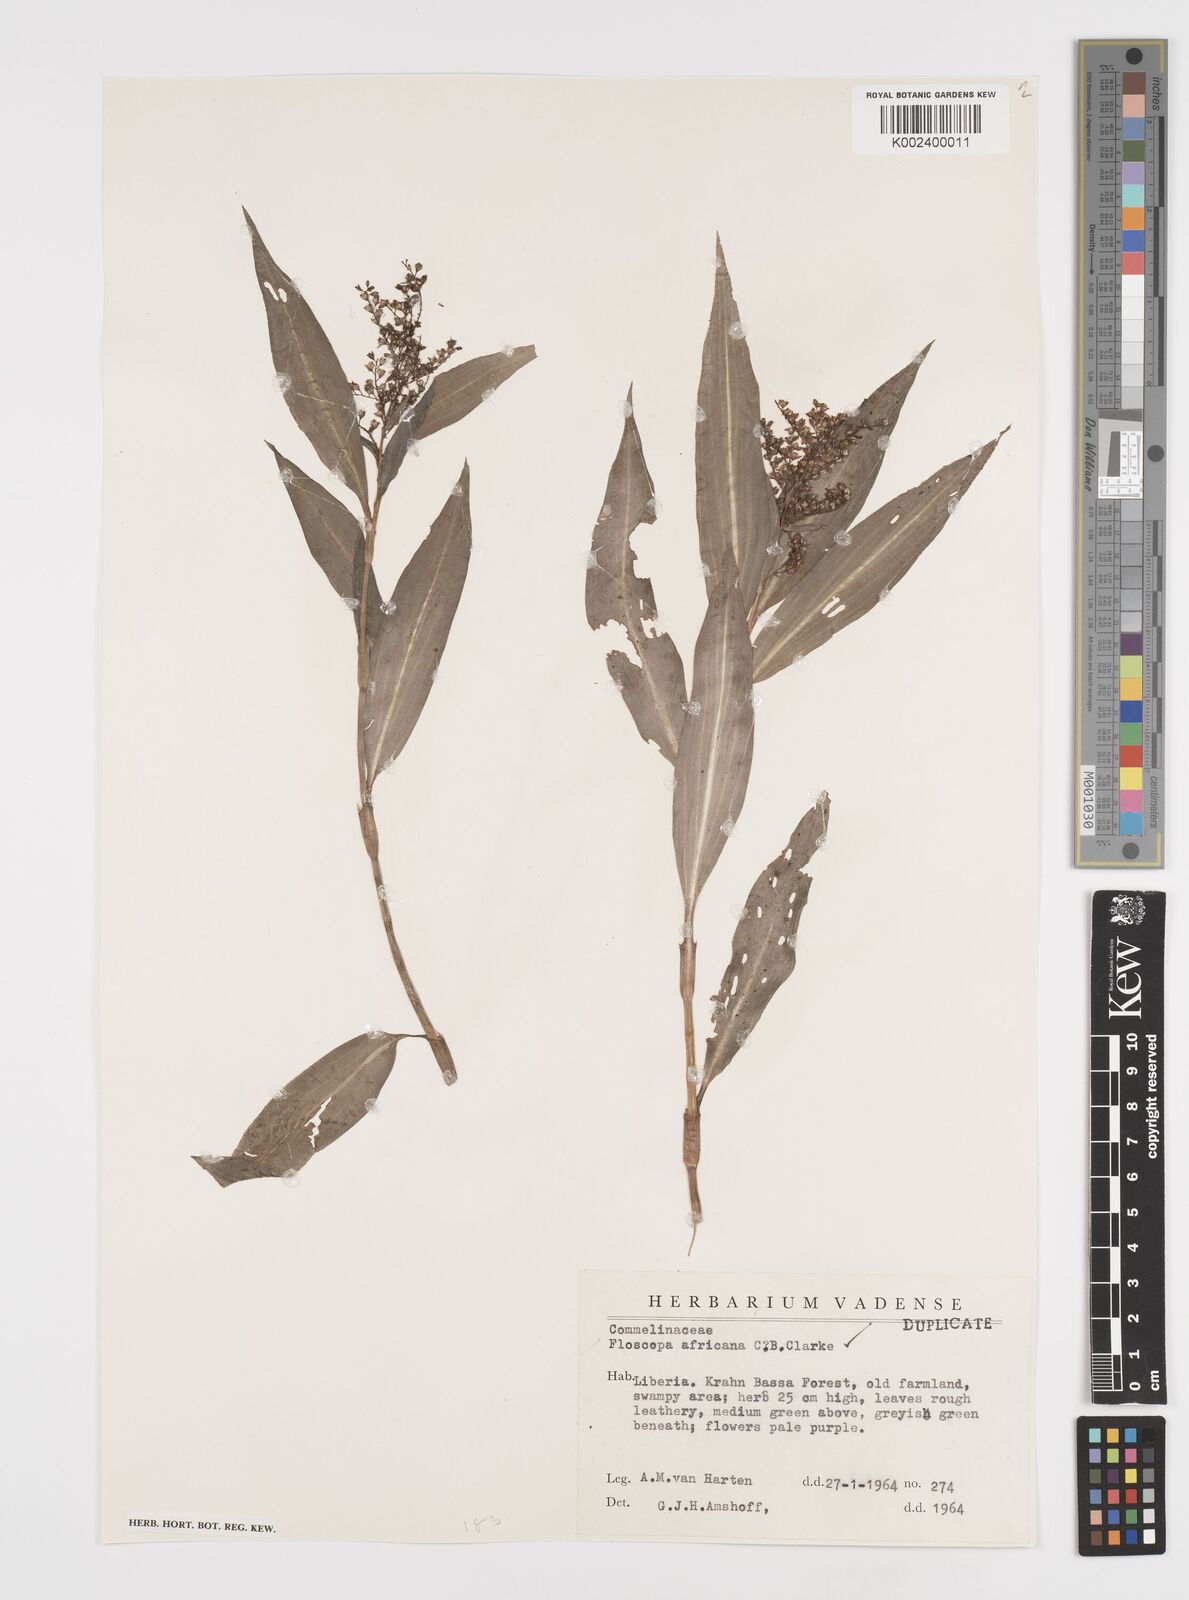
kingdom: Plantae
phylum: Tracheophyta
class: Liliopsida
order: Commelinales
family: Commelinaceae
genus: Floscopa
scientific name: Floscopa africana
